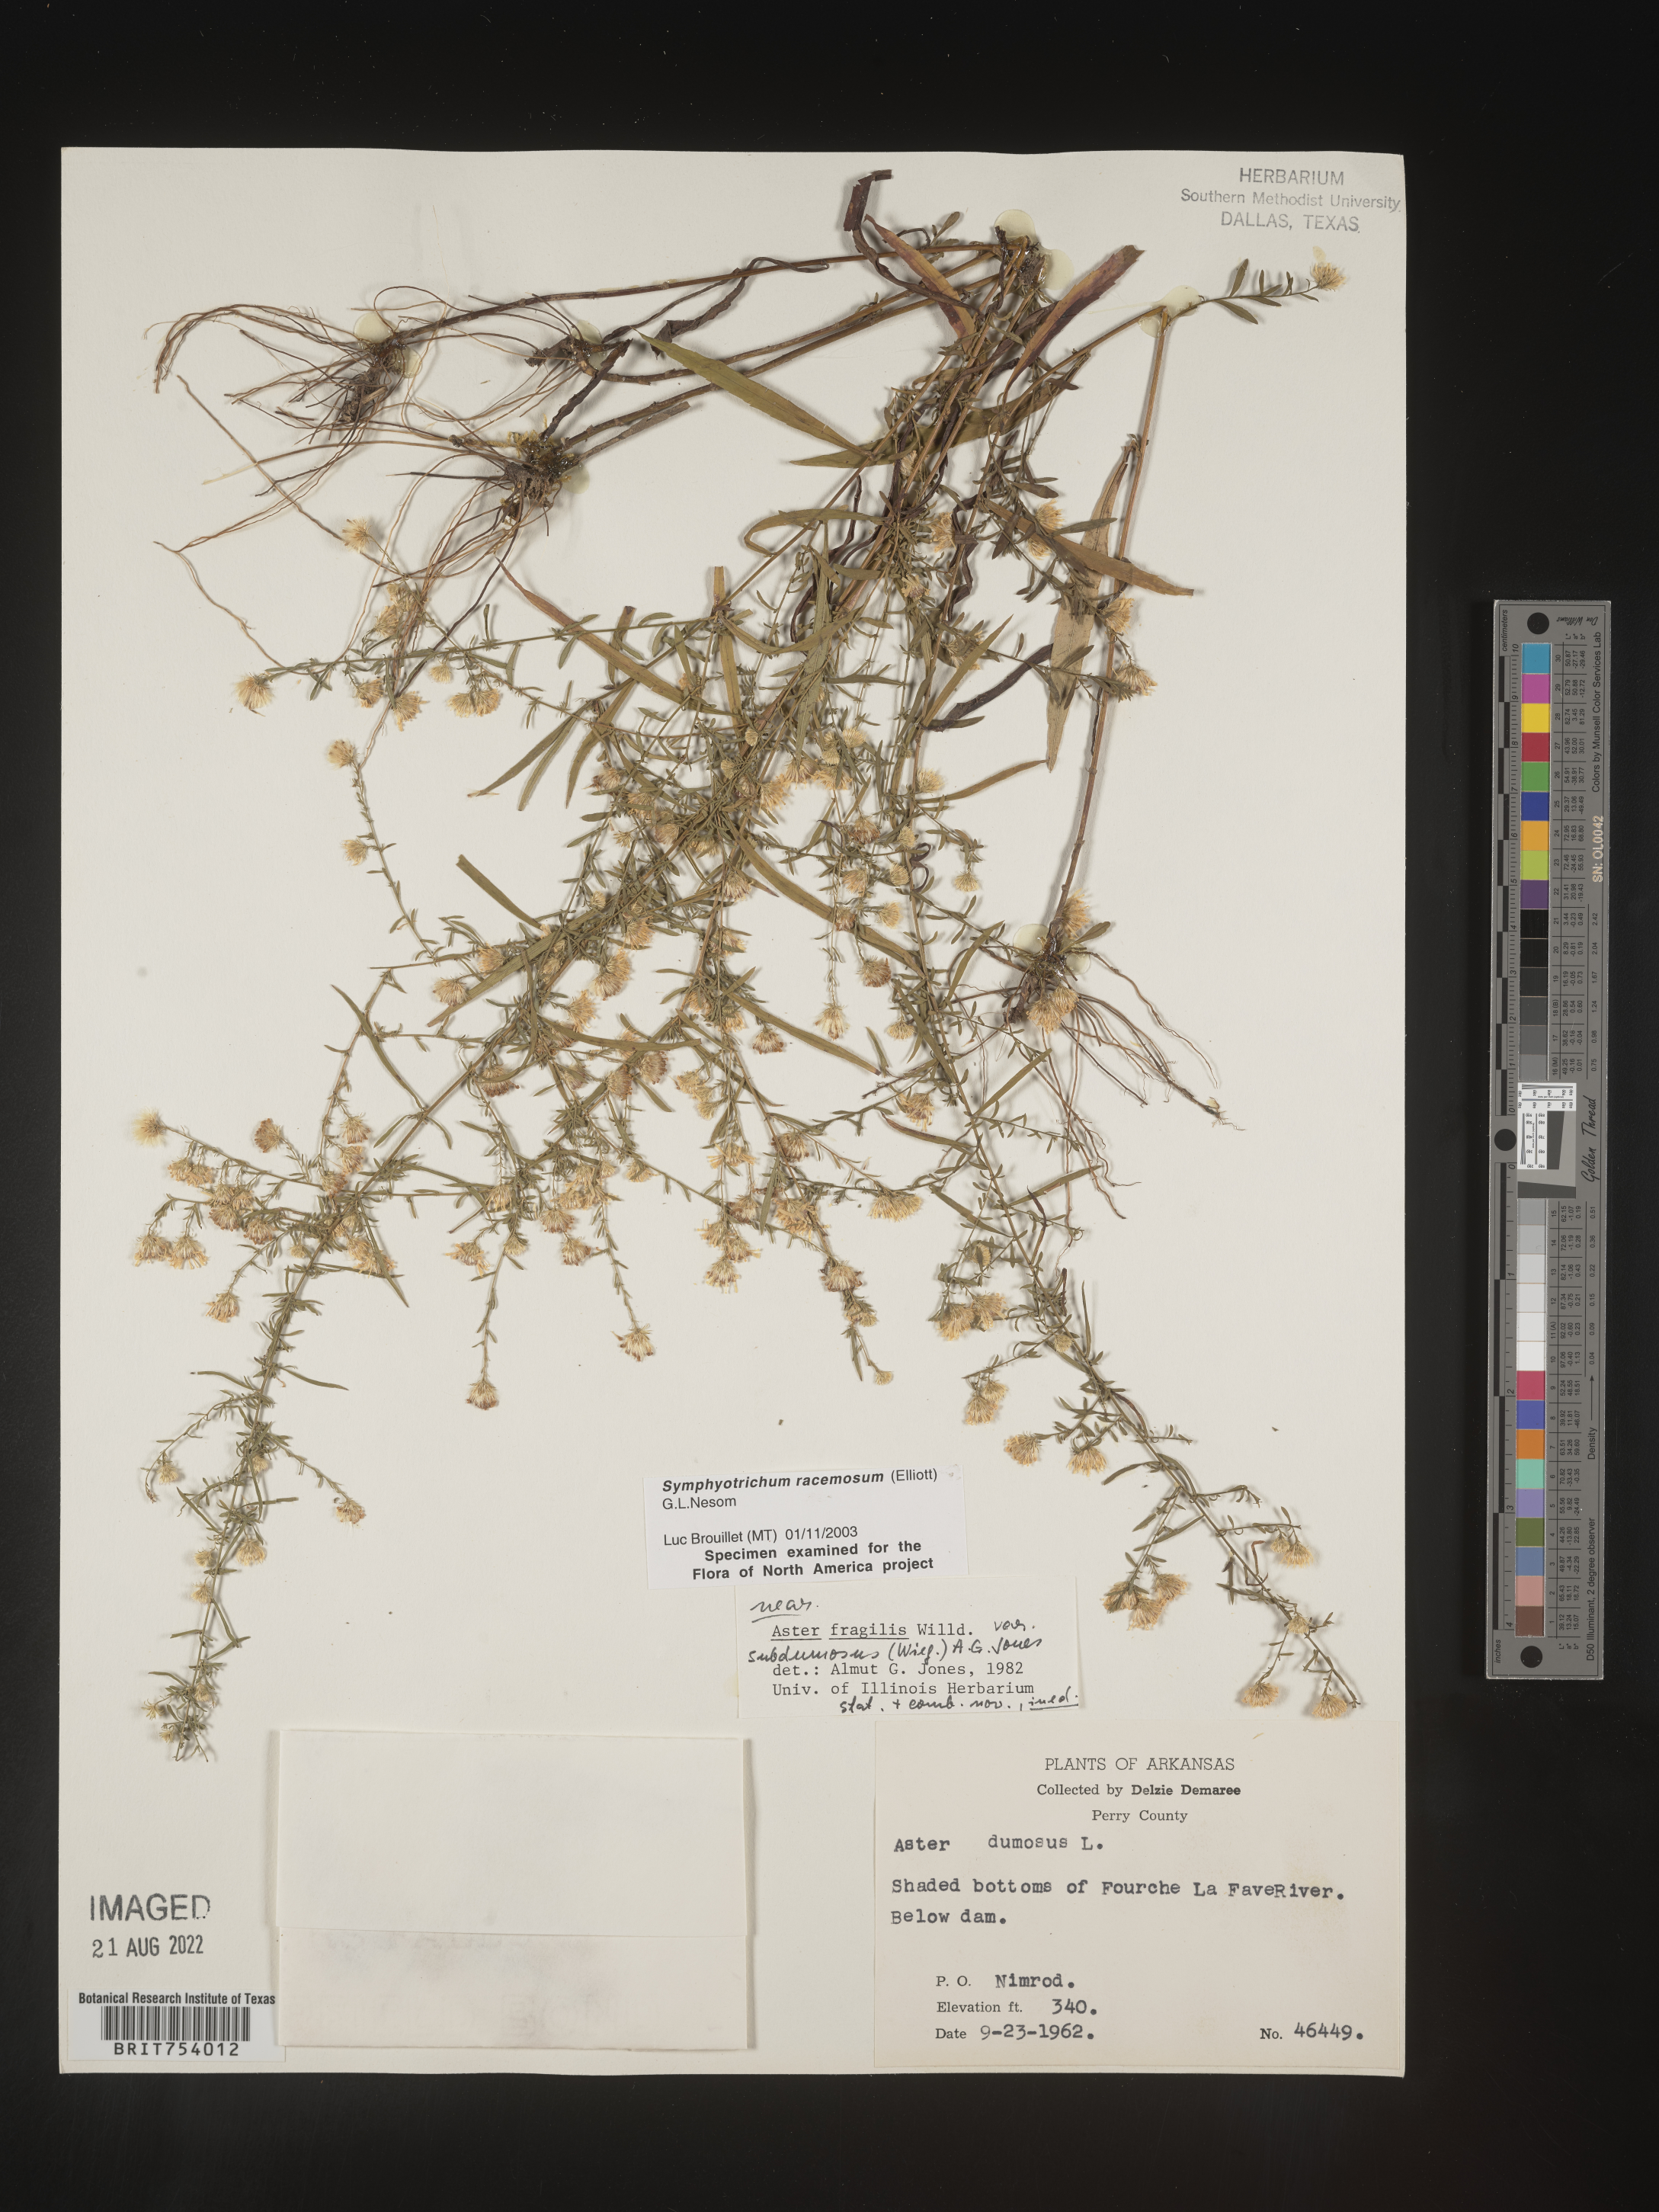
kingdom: Plantae
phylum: Tracheophyta
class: Magnoliopsida
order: Asterales
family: Asteraceae
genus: Symphyotrichum
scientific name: Symphyotrichum racemosum
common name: Small white aster
